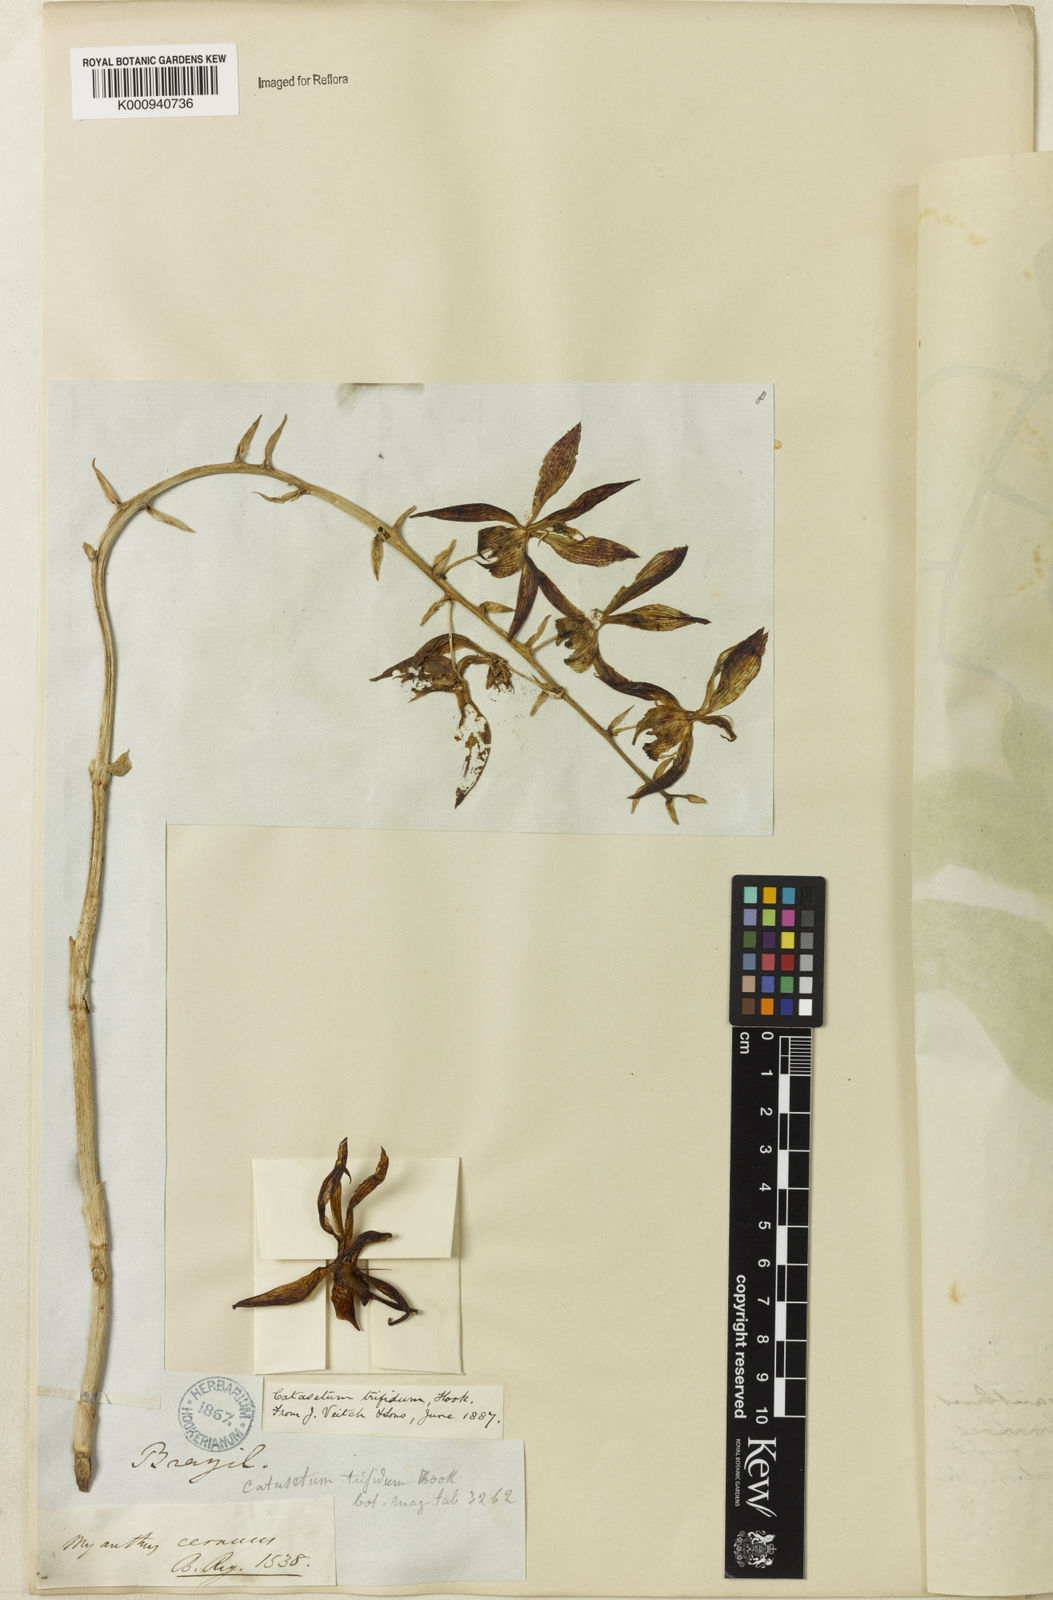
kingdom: Plantae
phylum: Tracheophyta
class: Liliopsida
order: Asparagales
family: Orchidaceae
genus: Catasetum
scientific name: Catasetum cernuum
